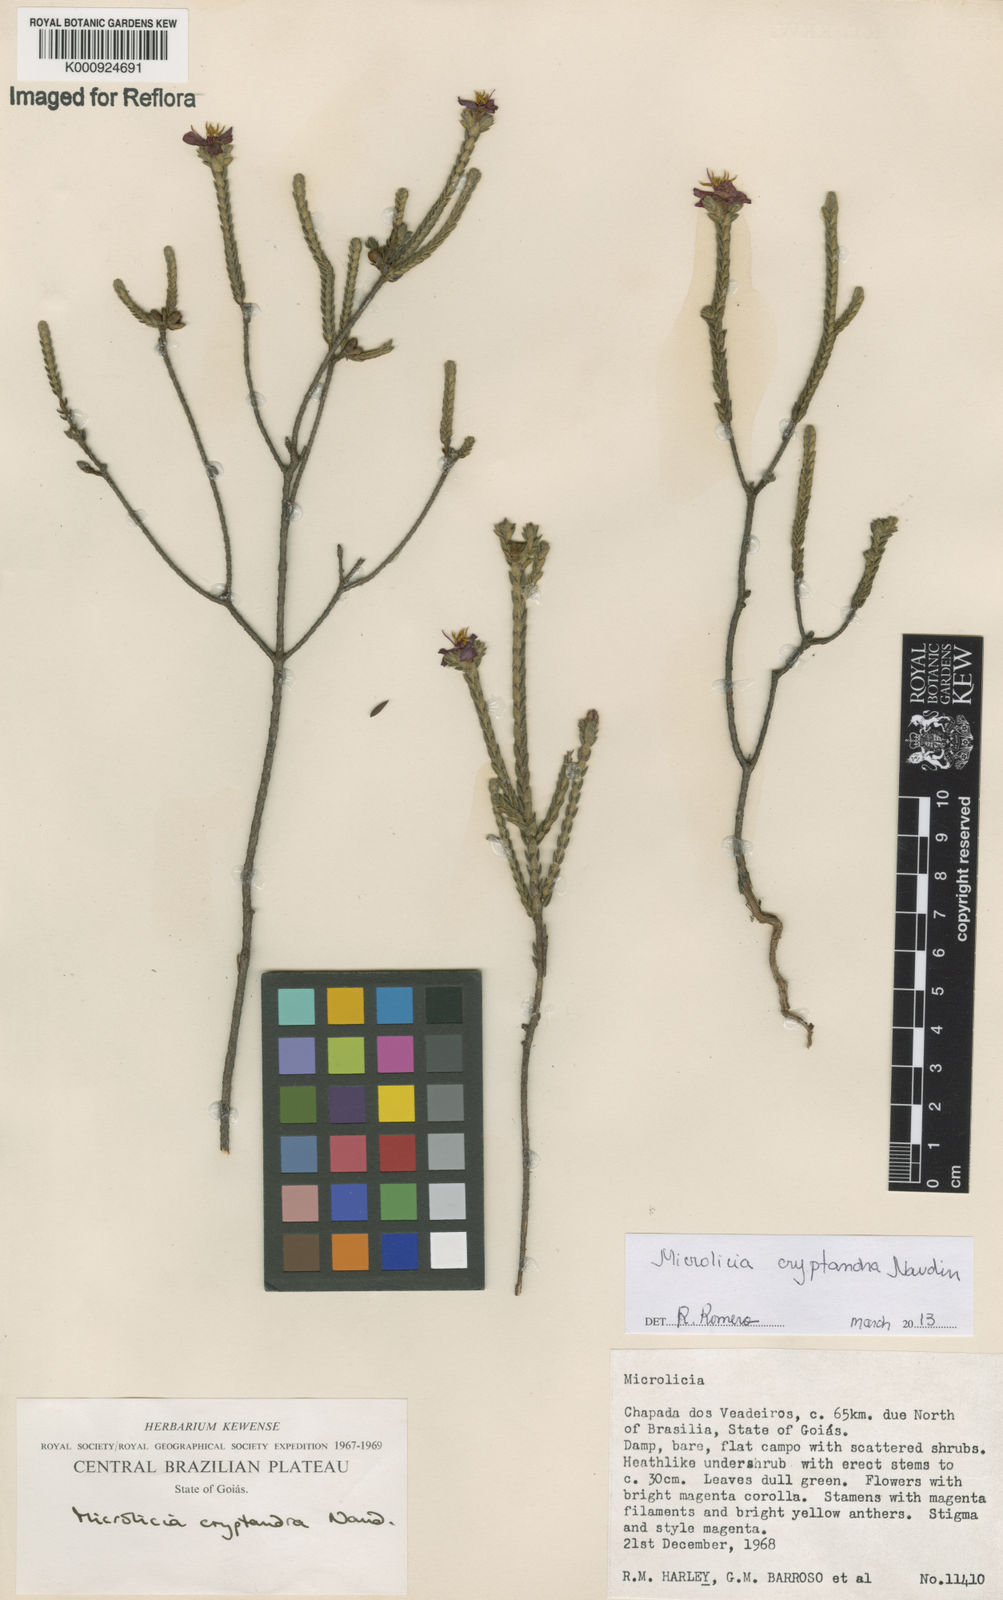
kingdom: Plantae
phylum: Tracheophyta
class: Magnoliopsida
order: Myrtales
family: Melastomataceae
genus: Microlicia
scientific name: Microlicia cryptandra
